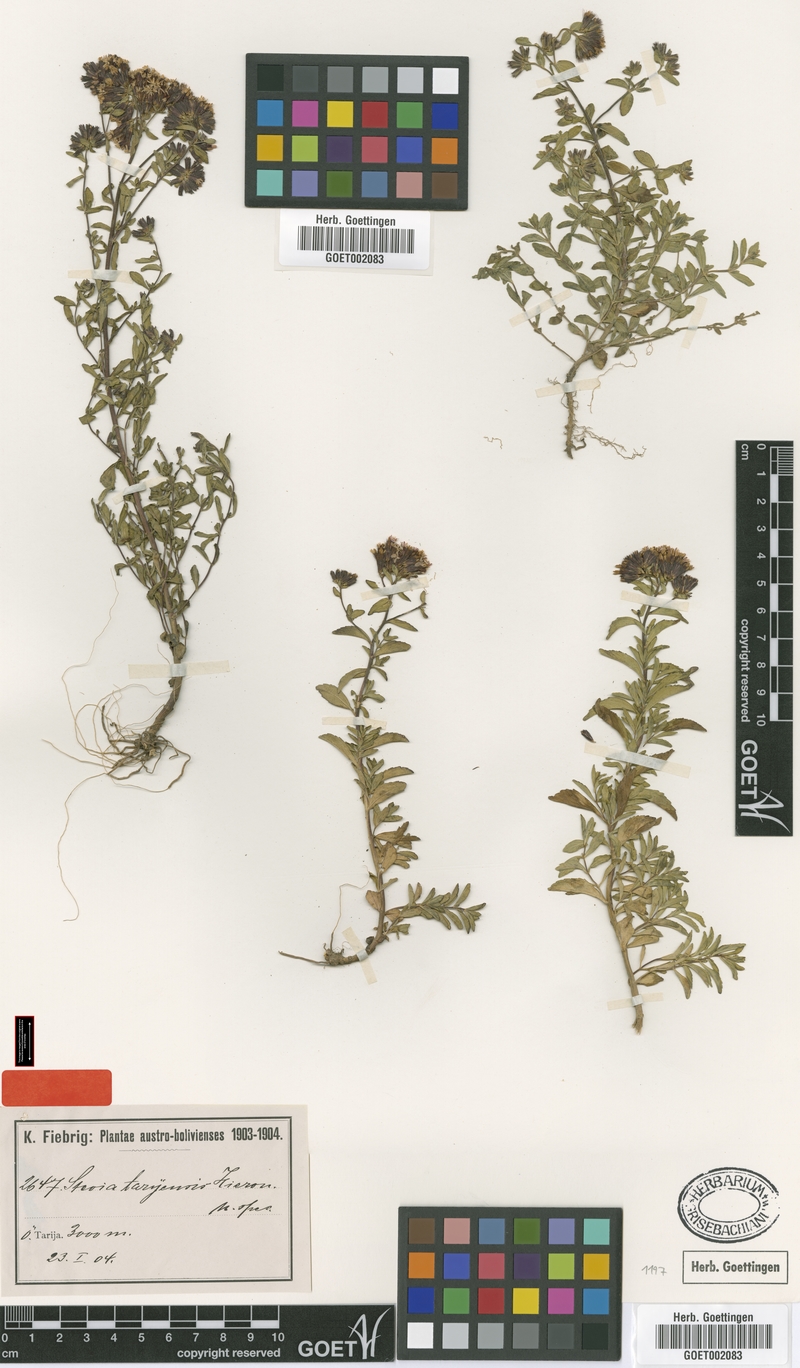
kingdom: Plantae
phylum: Tracheophyta
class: Magnoliopsida
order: Asterales
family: Asteraceae
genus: Stevia
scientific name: Stevia tarijensis
